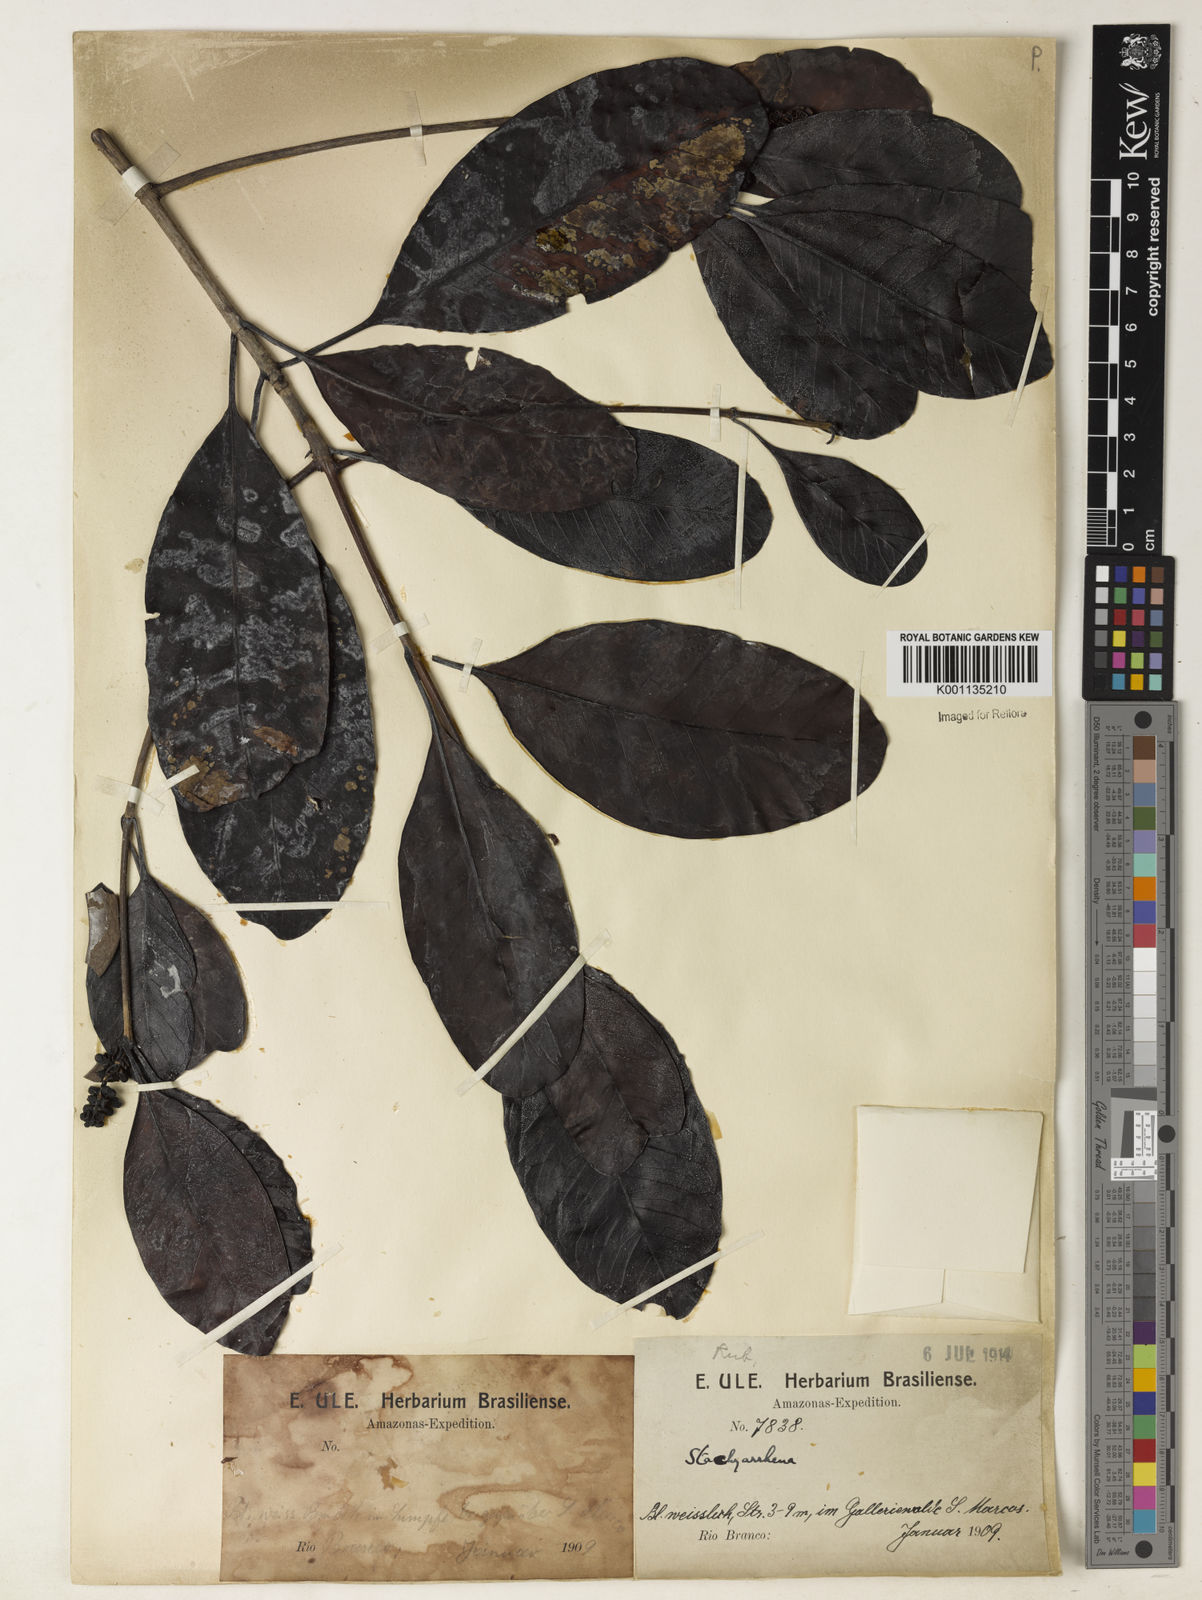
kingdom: Plantae
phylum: Tracheophyta
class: Magnoliopsida
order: Gentianales
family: Rubiaceae
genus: Stachyarrhena
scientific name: Stachyarrhena spicata
